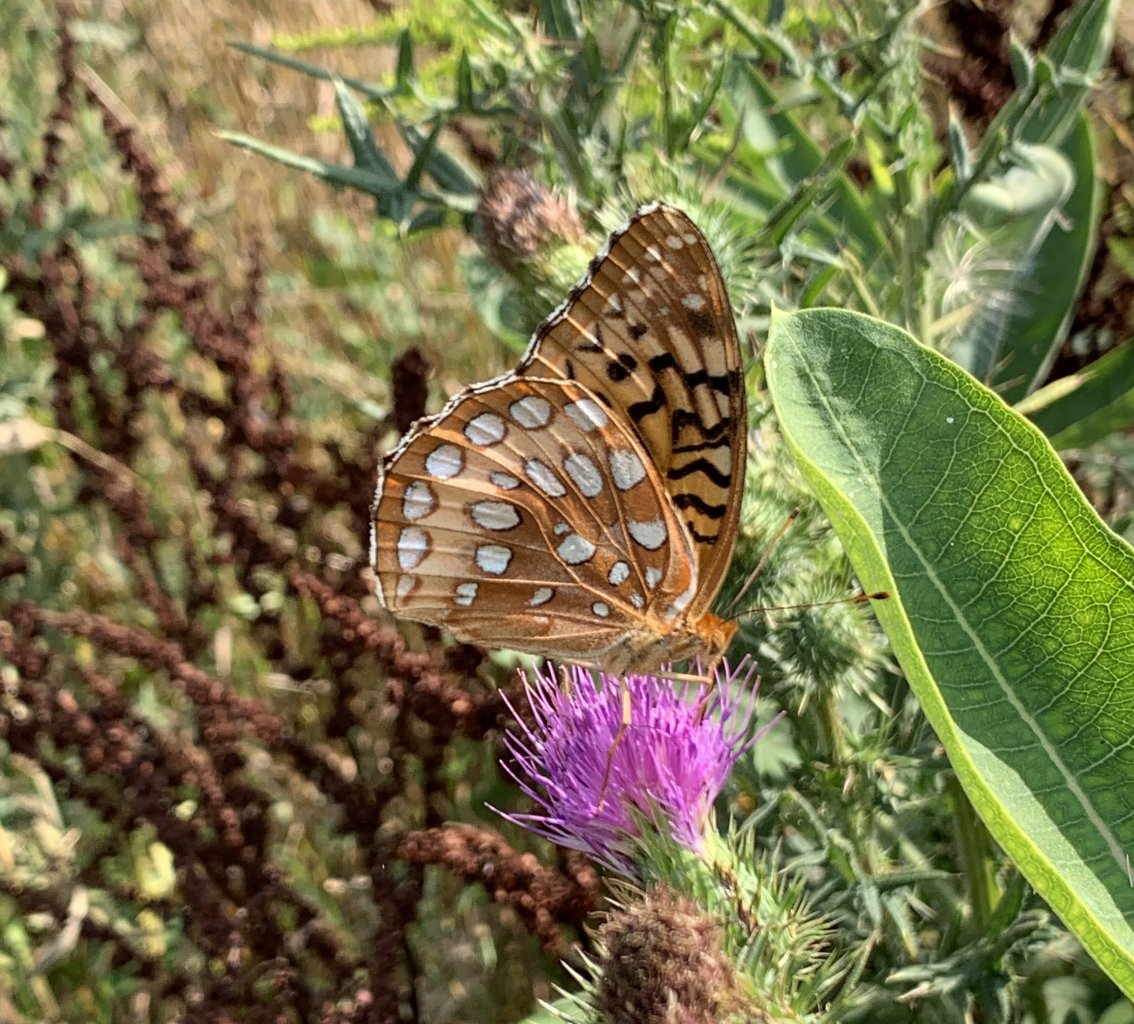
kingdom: Animalia
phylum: Arthropoda
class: Insecta
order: Lepidoptera
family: Nymphalidae
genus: Speyeria
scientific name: Speyeria cybele
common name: Great Spangled Fritillary
